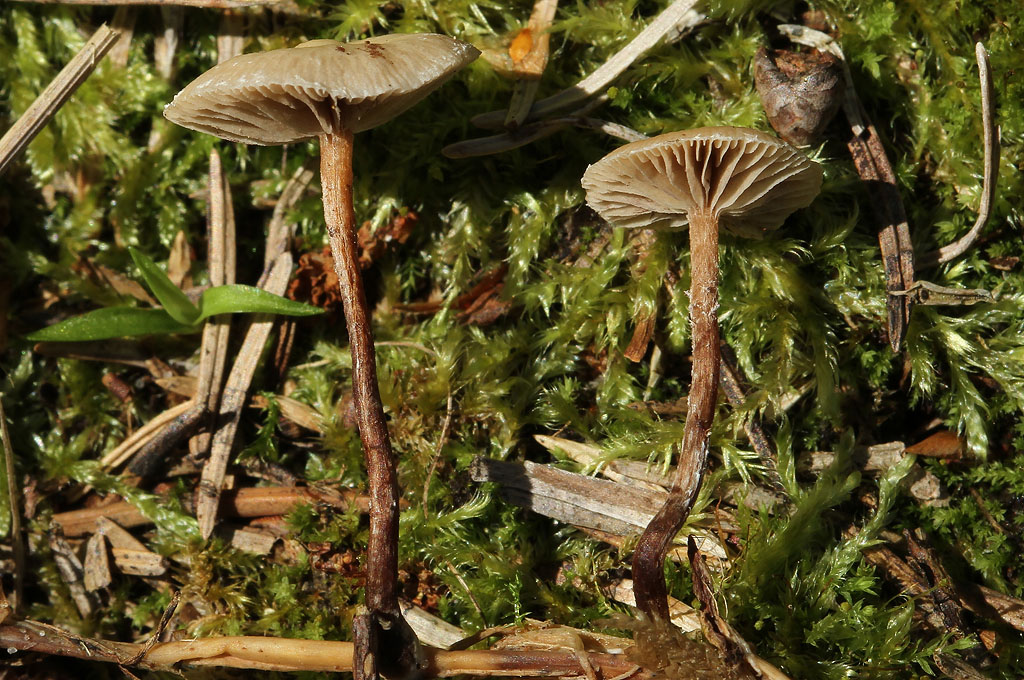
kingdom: Fungi
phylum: Basidiomycota
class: Agaricomycetes
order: Agaricales
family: Strophariaceae
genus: Deconica
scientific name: Deconica crobula
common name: træflis-stråhat
